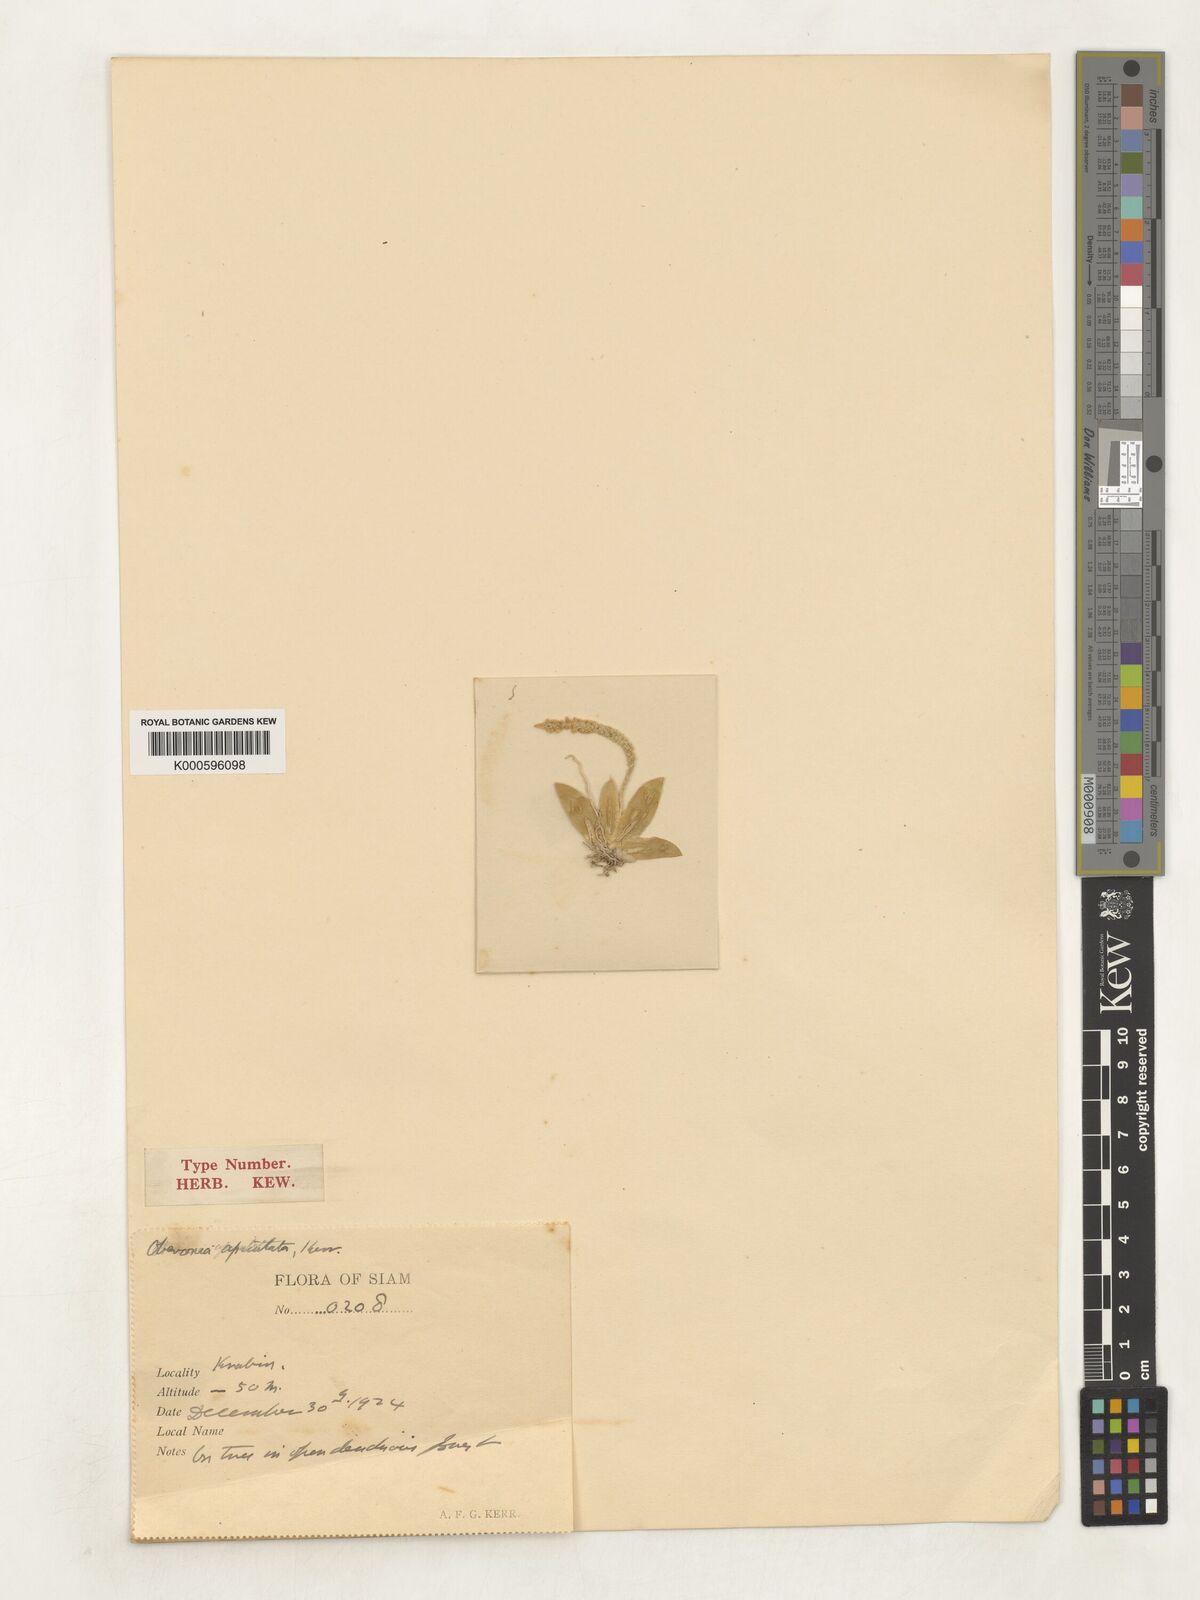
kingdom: Plantae
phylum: Tracheophyta
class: Liliopsida
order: Asparagales
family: Orchidaceae
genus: Oberonia
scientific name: Oberonia pachyphylla
